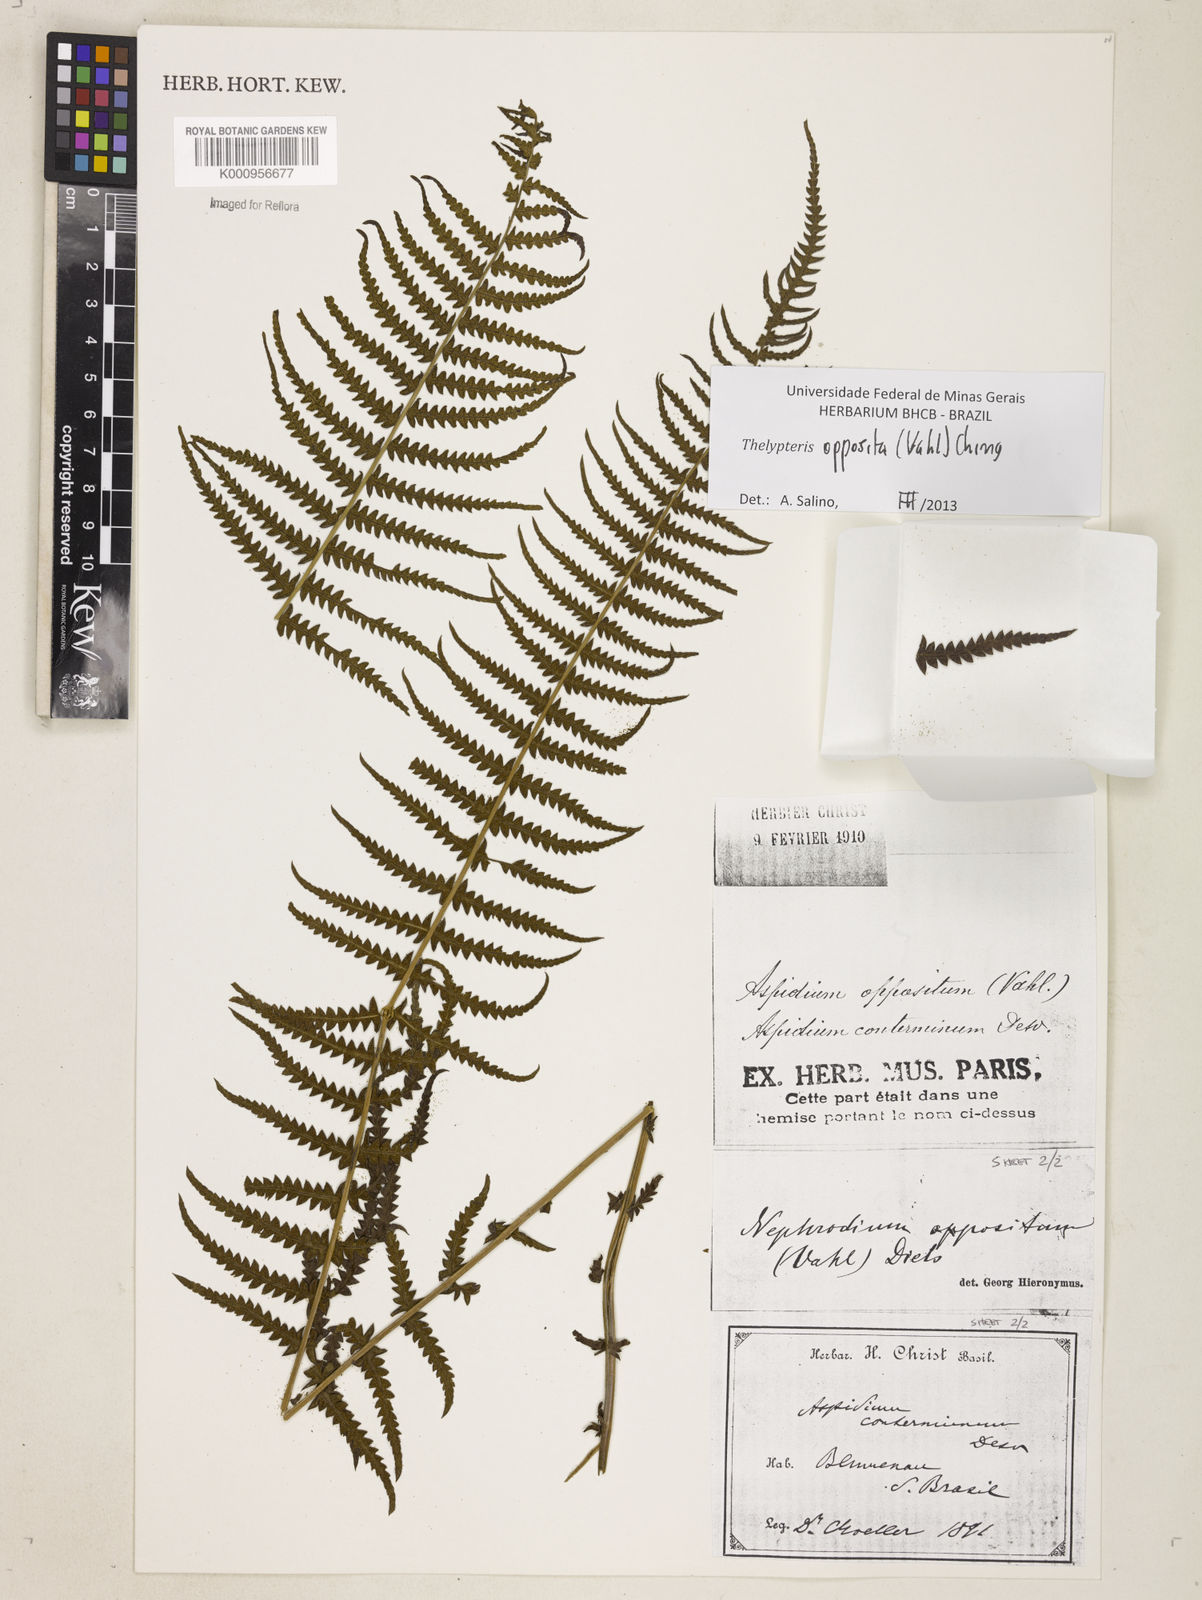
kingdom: Plantae
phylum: Tracheophyta
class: Polypodiopsida
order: Polypodiales
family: Thelypteridaceae
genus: Amauropelta
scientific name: Amauropelta opposita
